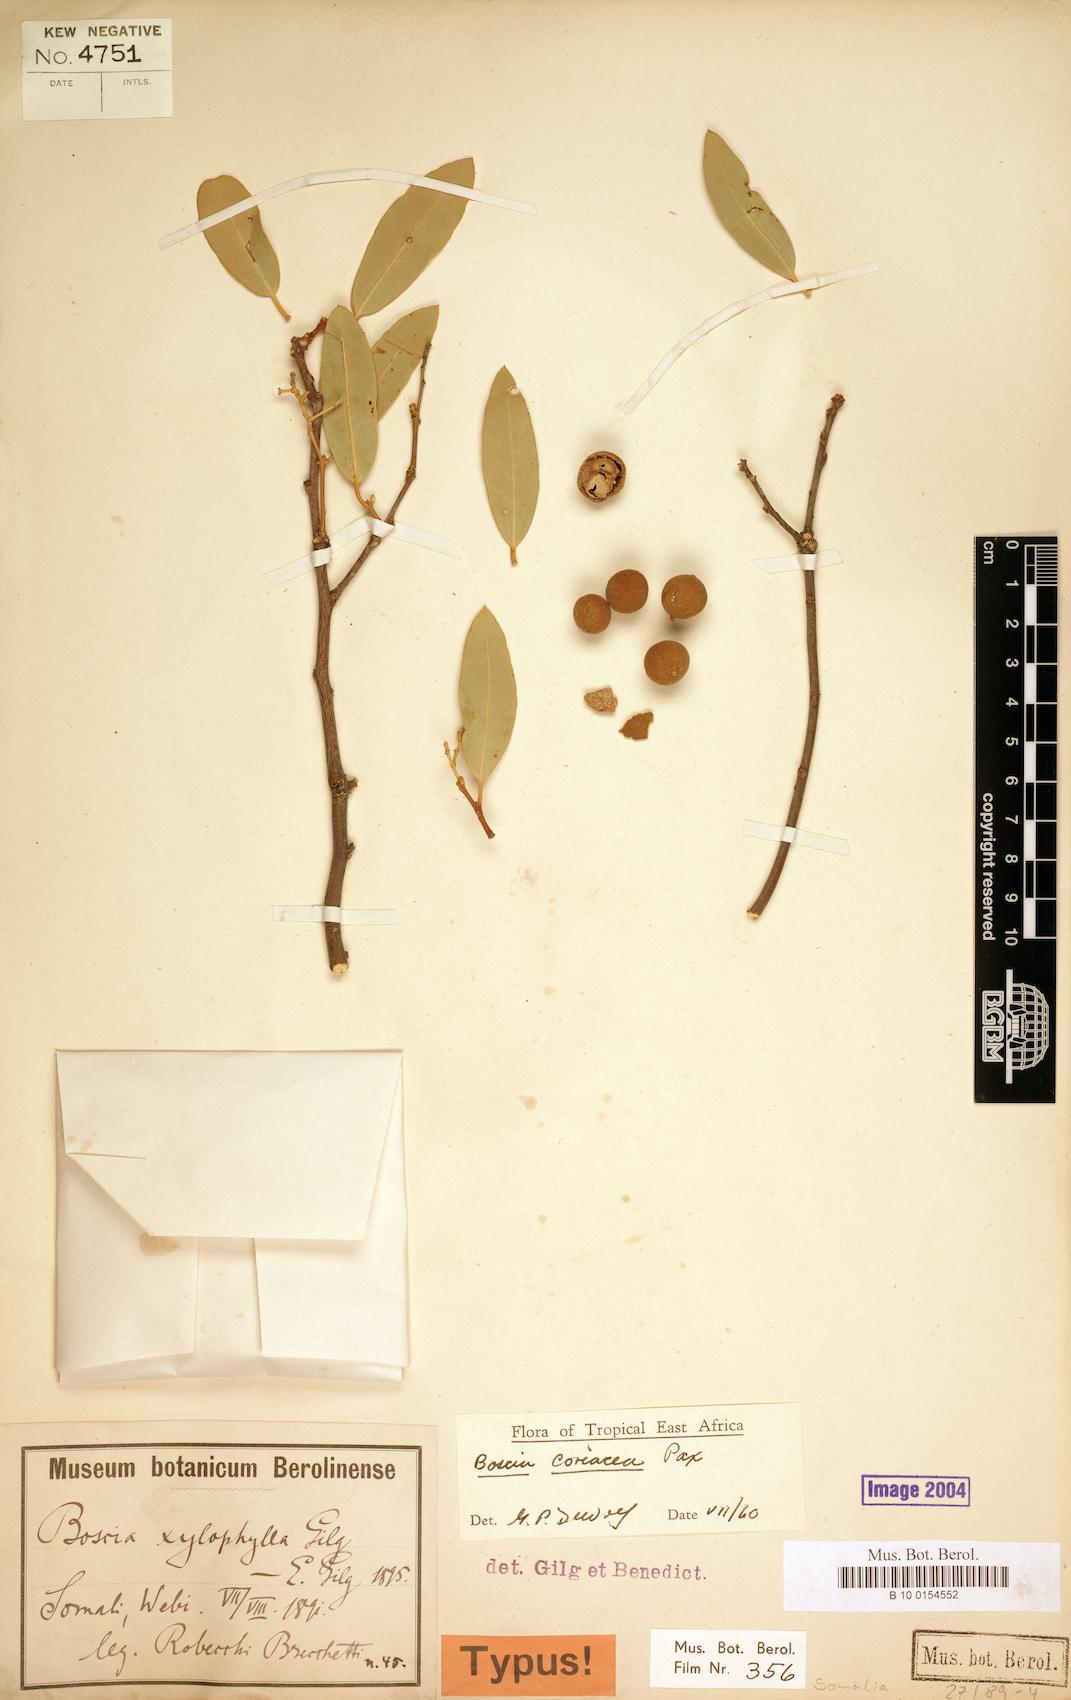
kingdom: Plantae
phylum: Tracheophyta
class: Magnoliopsida
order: Brassicales
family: Capparaceae
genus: Boscia
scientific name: Boscia coriacea
